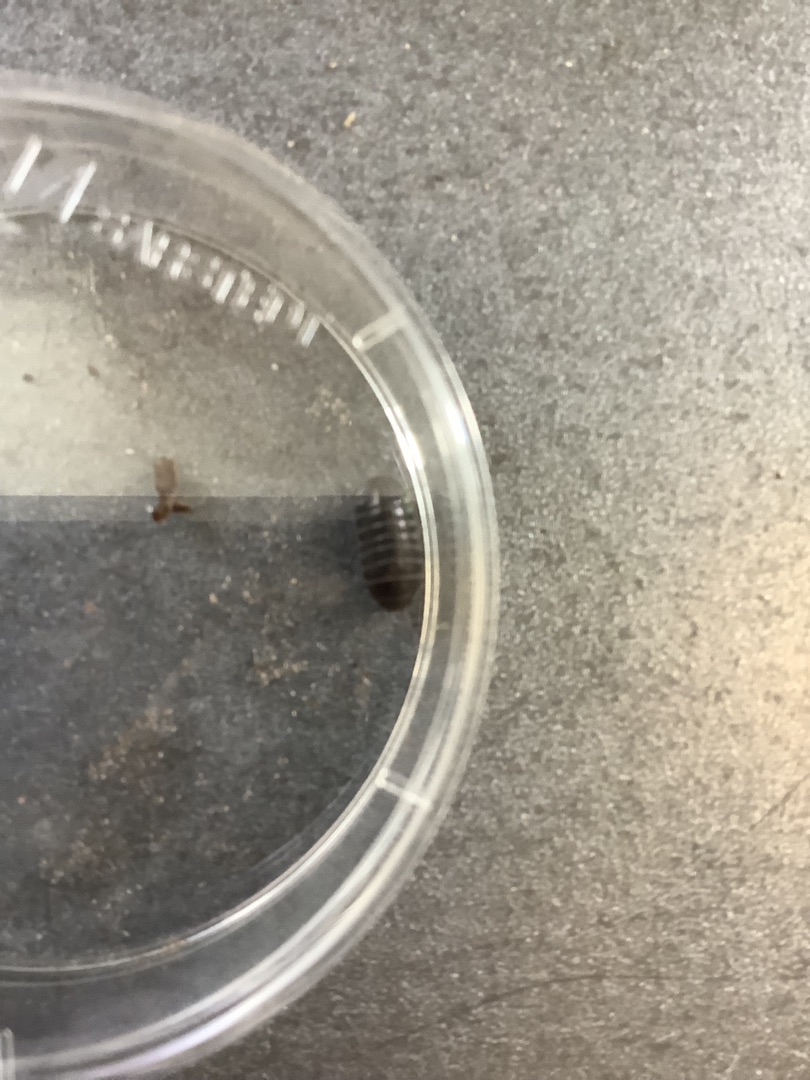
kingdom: Animalia
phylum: Arthropoda
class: Malacostraca
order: Isopoda
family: Armadillidiidae
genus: Armadillidium
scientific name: Armadillidium vulgare
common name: Almindelig kuglebænkebider
